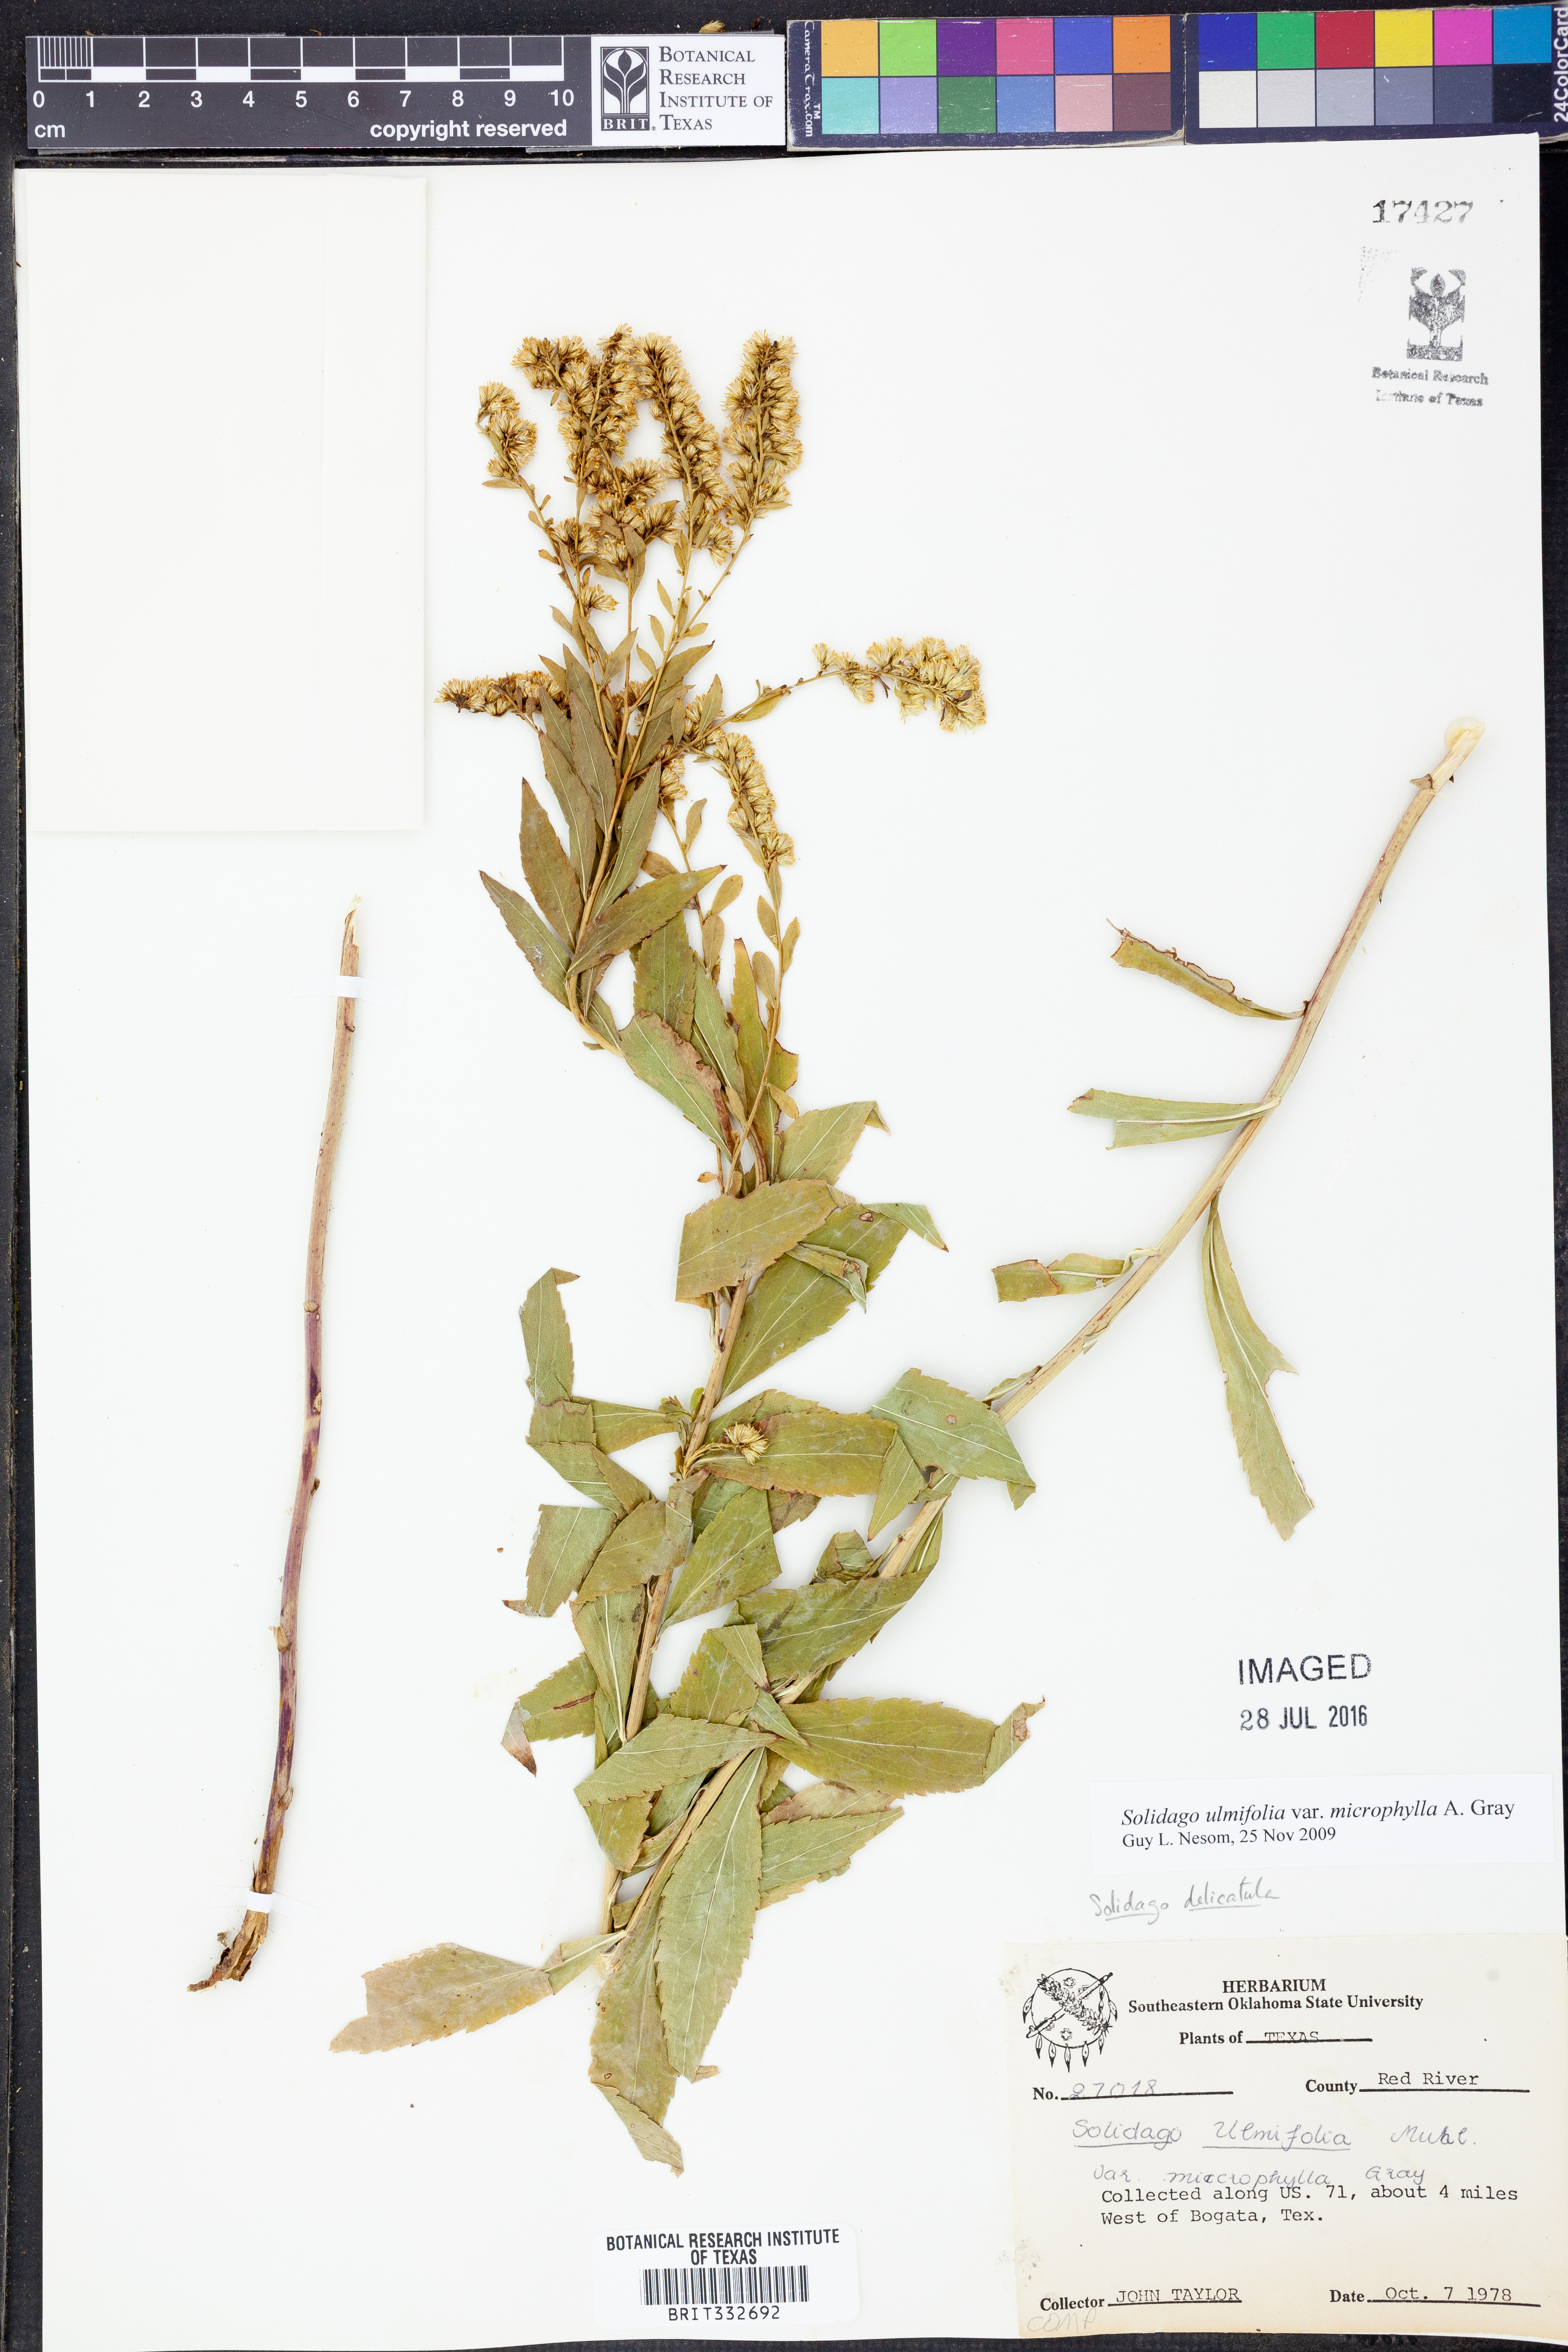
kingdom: Plantae
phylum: Tracheophyta
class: Magnoliopsida
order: Asterales
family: Asteraceae
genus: Solidago
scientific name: Solidago delicatula
